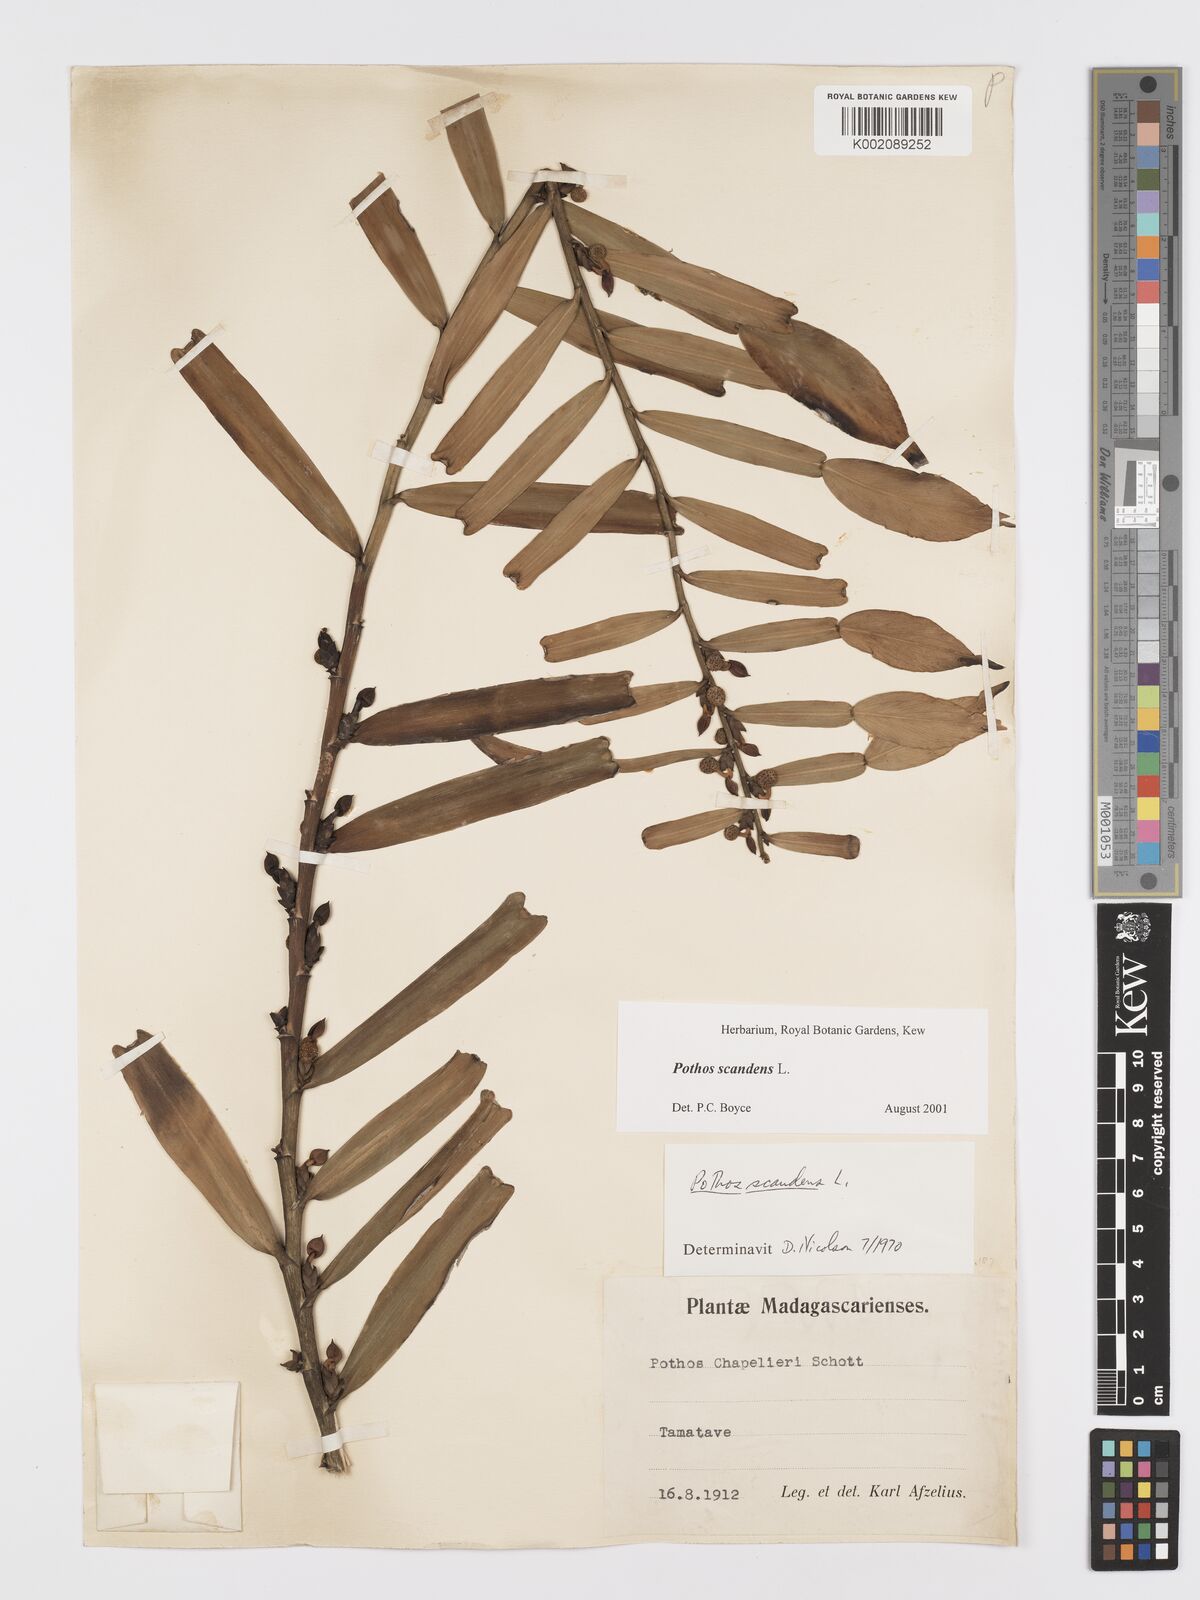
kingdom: Plantae
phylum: Tracheophyta
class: Liliopsida
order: Alismatales
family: Araceae
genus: Pothos
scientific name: Pothos scandens
